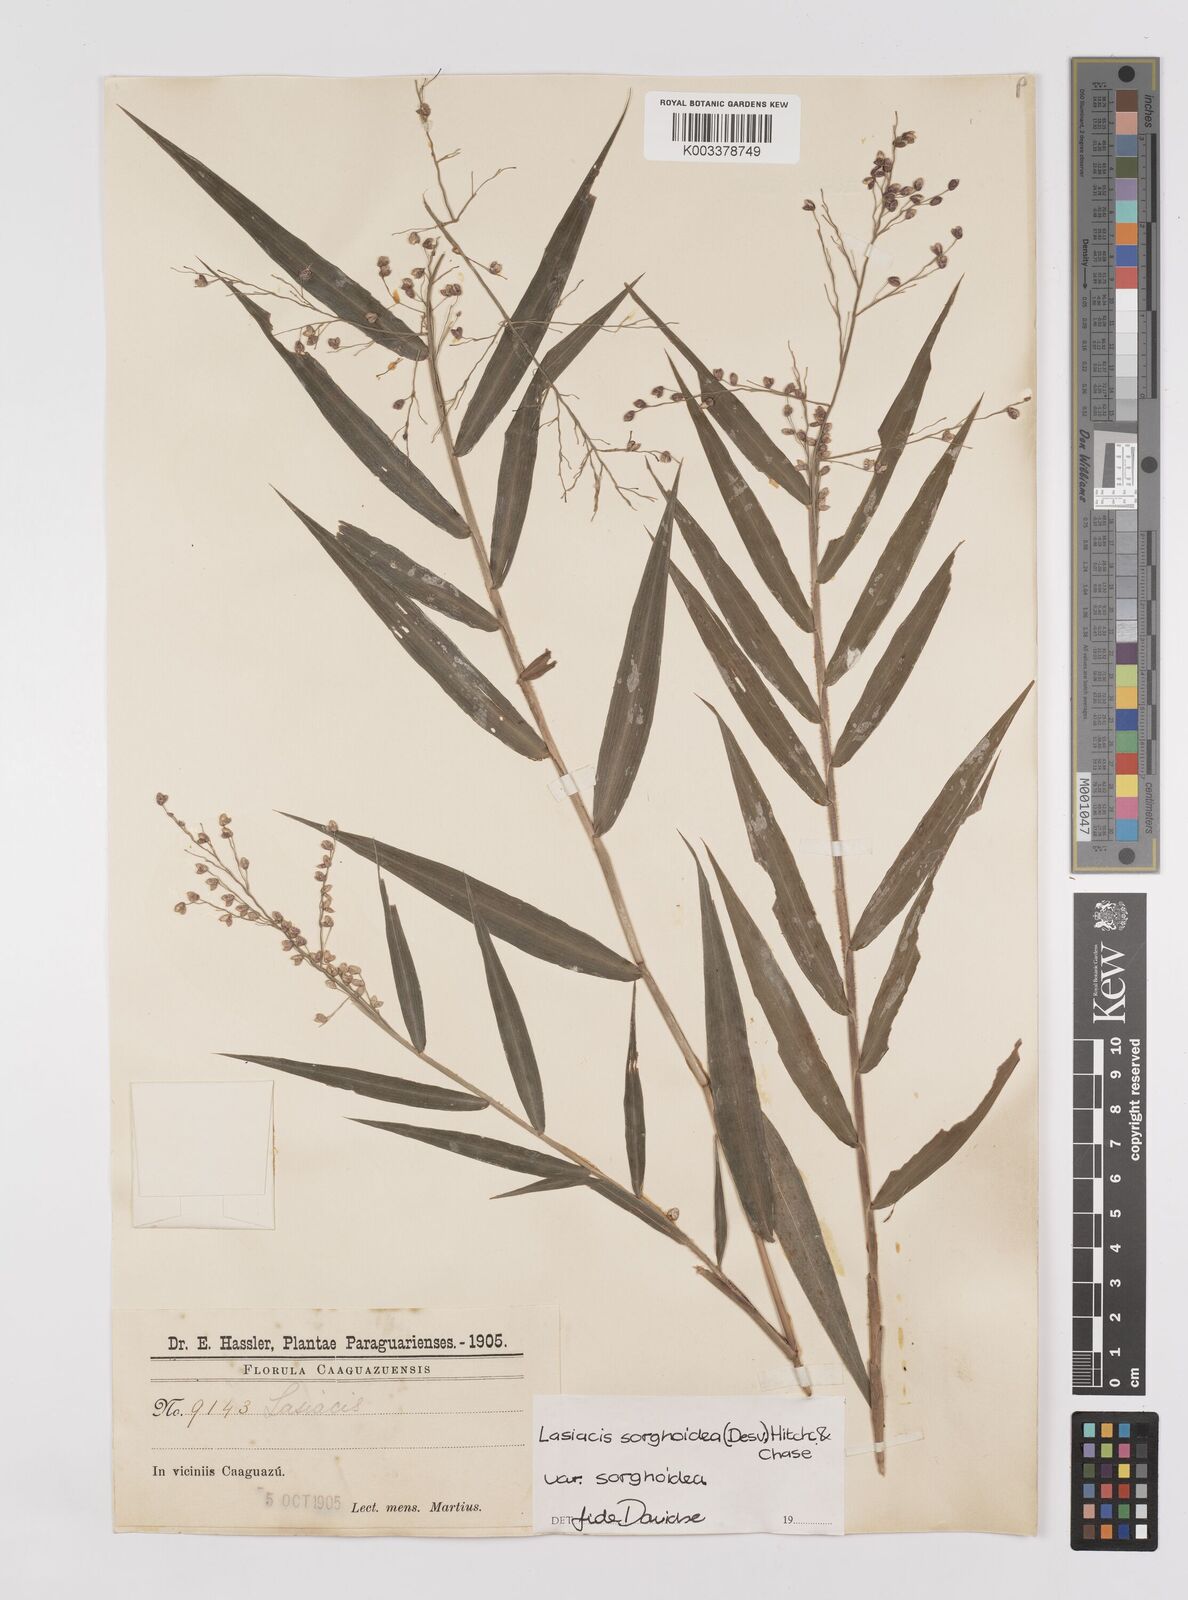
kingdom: Plantae
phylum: Tracheophyta
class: Liliopsida
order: Poales
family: Poaceae
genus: Lasiacis
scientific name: Lasiacis maculata
